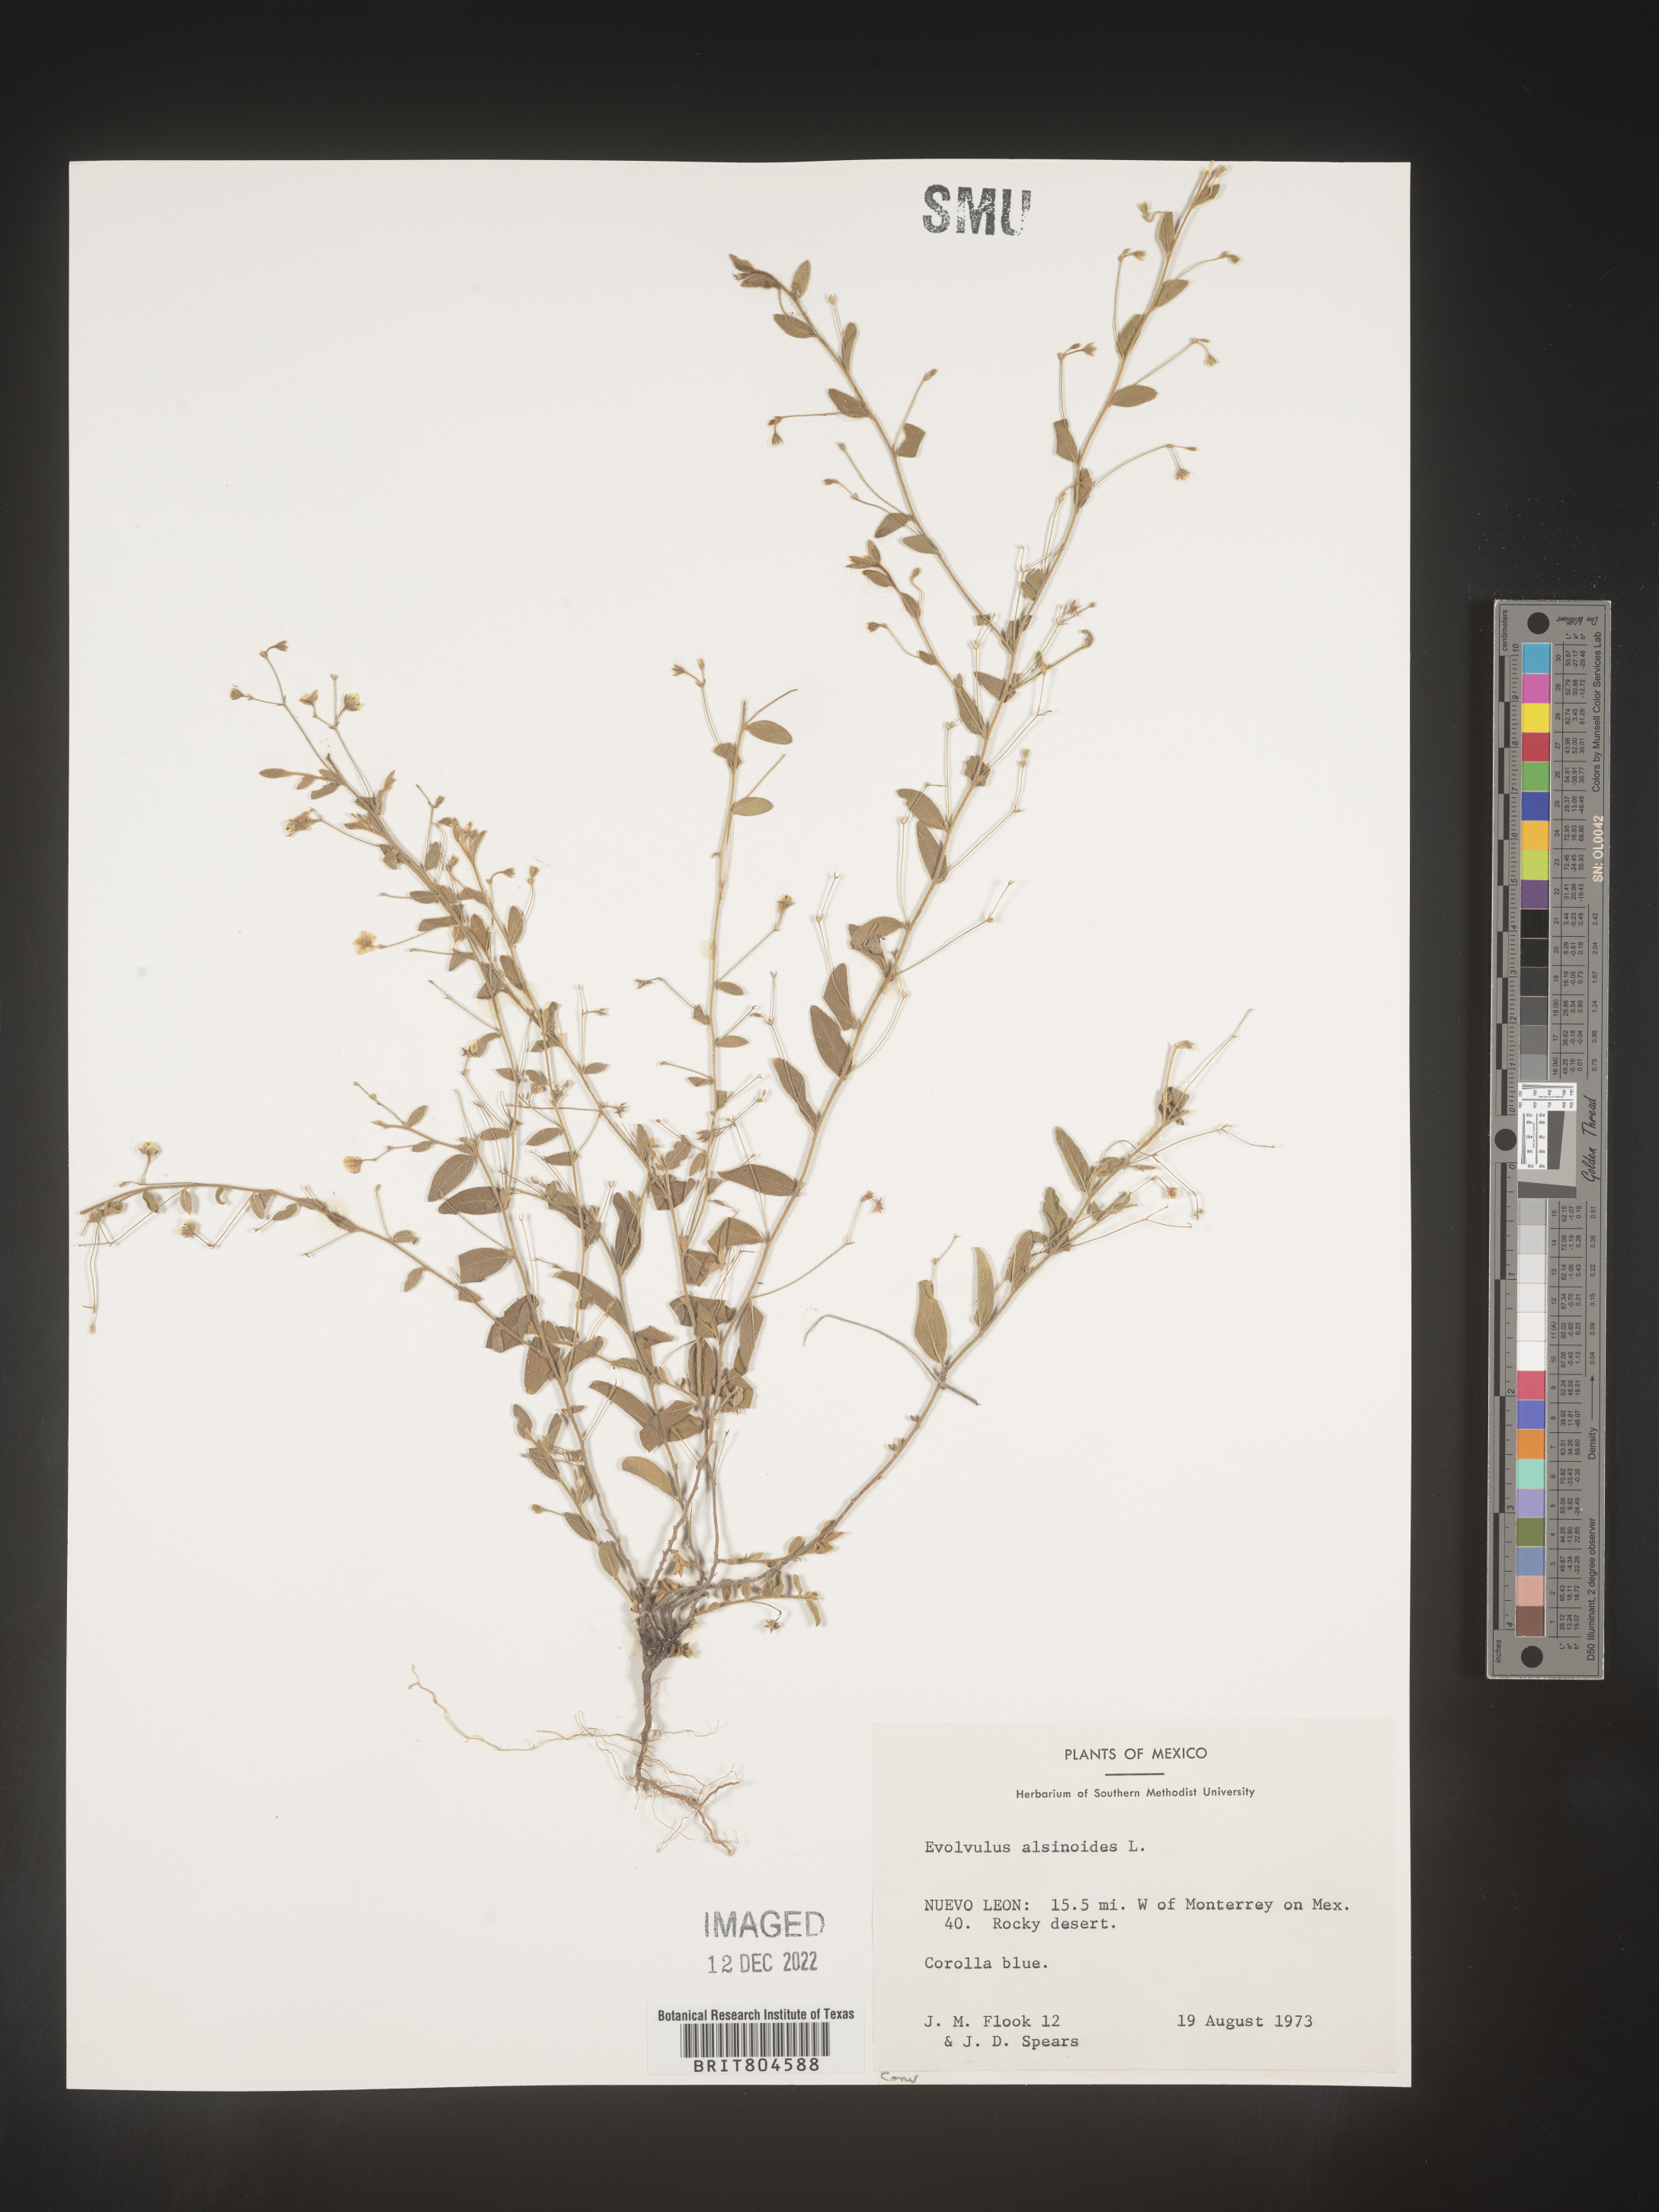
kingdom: Plantae
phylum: Tracheophyta
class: Magnoliopsida
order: Solanales
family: Convolvulaceae
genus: Evolvulus
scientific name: Evolvulus
